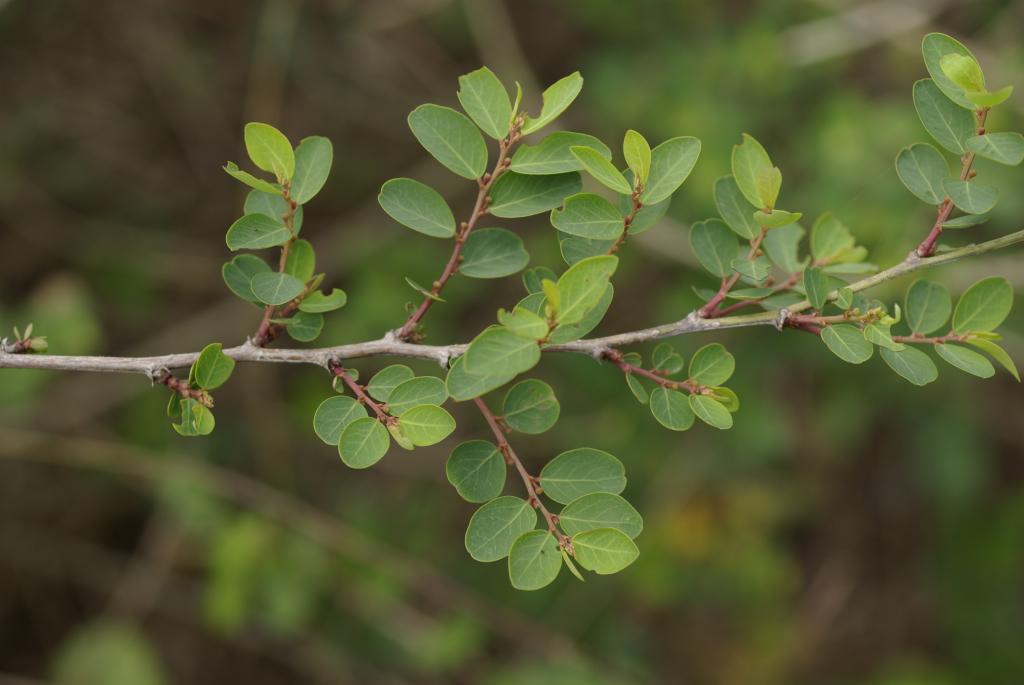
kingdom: Plantae
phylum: Tracheophyta
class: Magnoliopsida
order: Malpighiales
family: Phyllanthaceae
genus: Breynia
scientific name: Breynia officinalis
